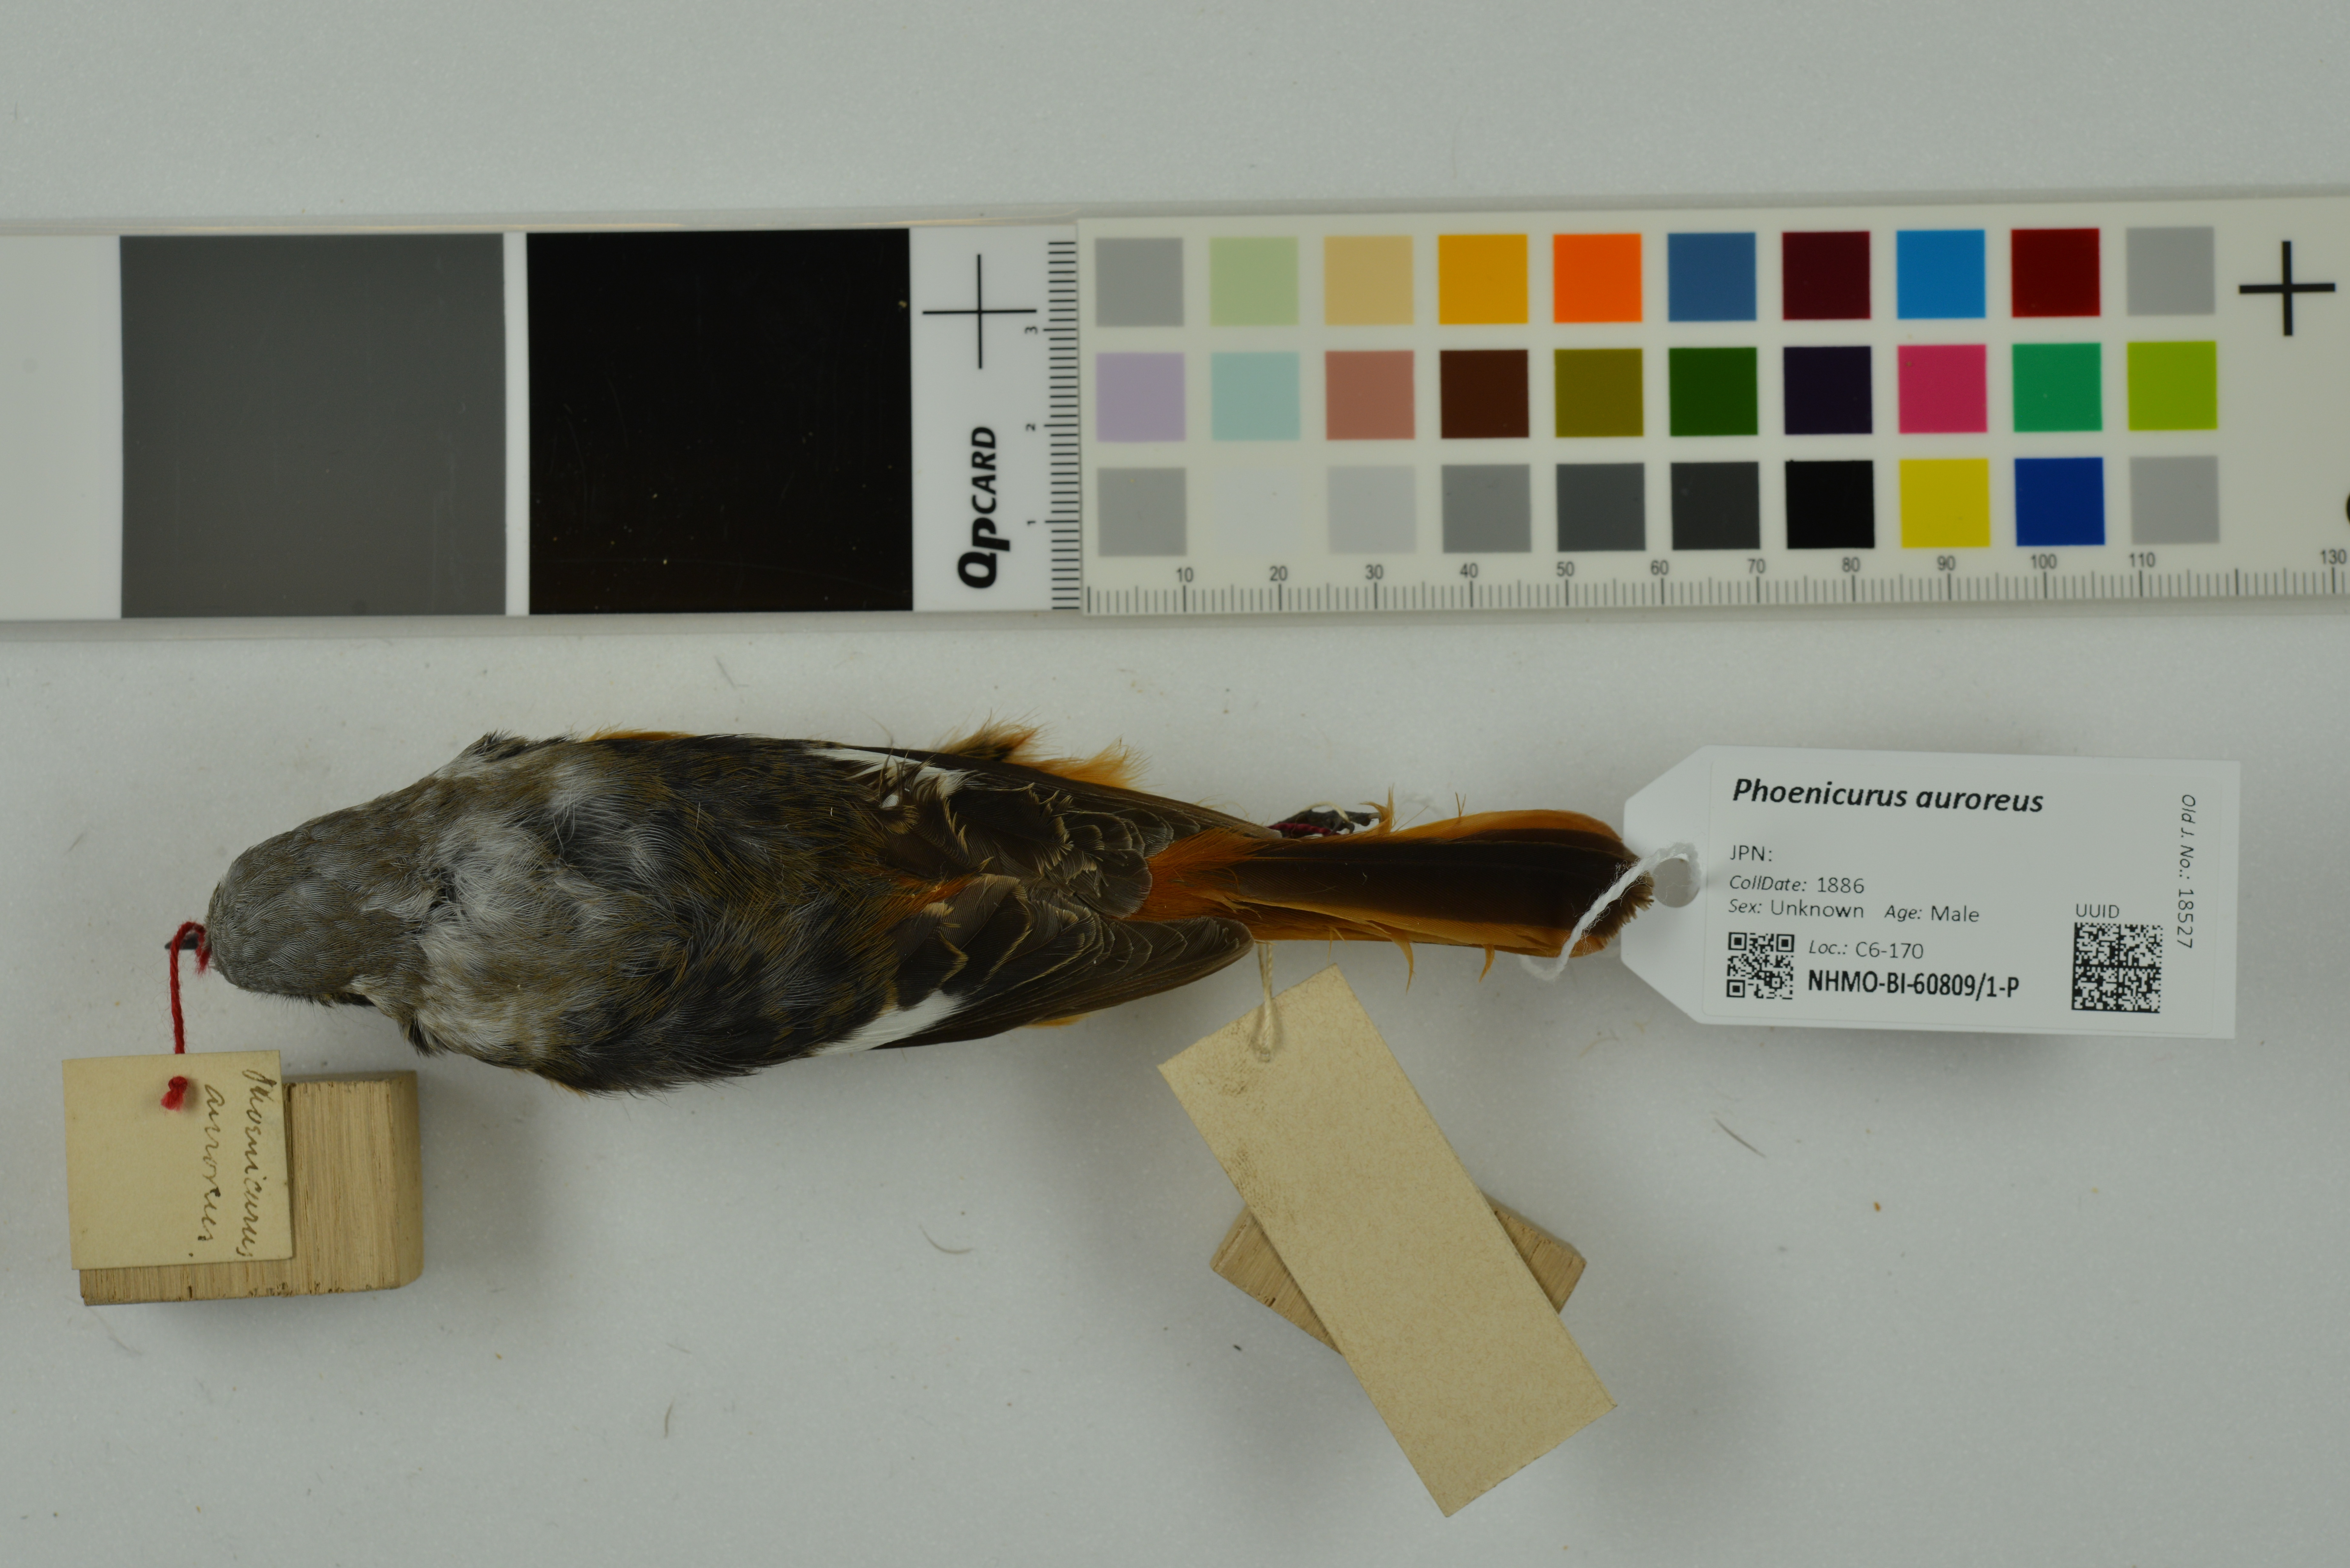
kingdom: Animalia
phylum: Chordata
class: Aves
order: Passeriformes
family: Muscicapidae
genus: Phoenicurus
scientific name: Phoenicurus auroreus
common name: Daurian redstart
